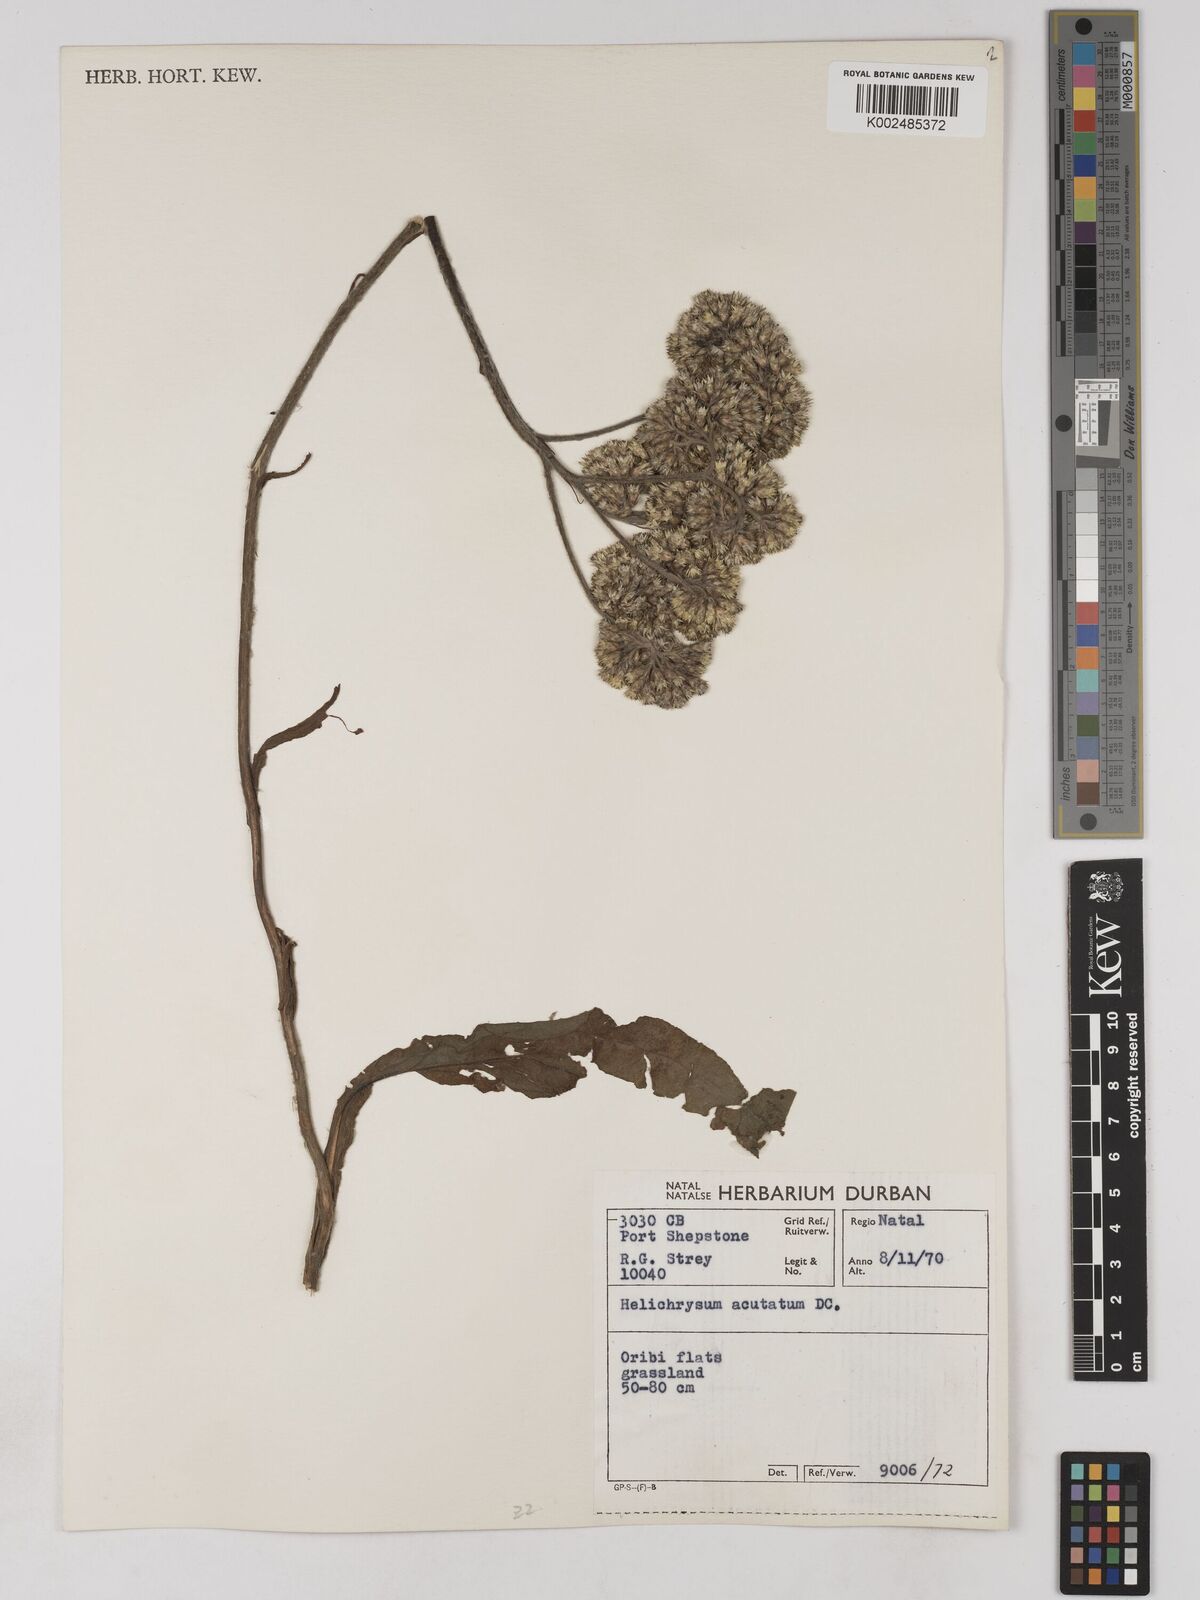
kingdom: Plantae
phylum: Tracheophyta
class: Magnoliopsida
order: Asterales
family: Asteraceae
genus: Helichrysum
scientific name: Helichrysum acutatum
